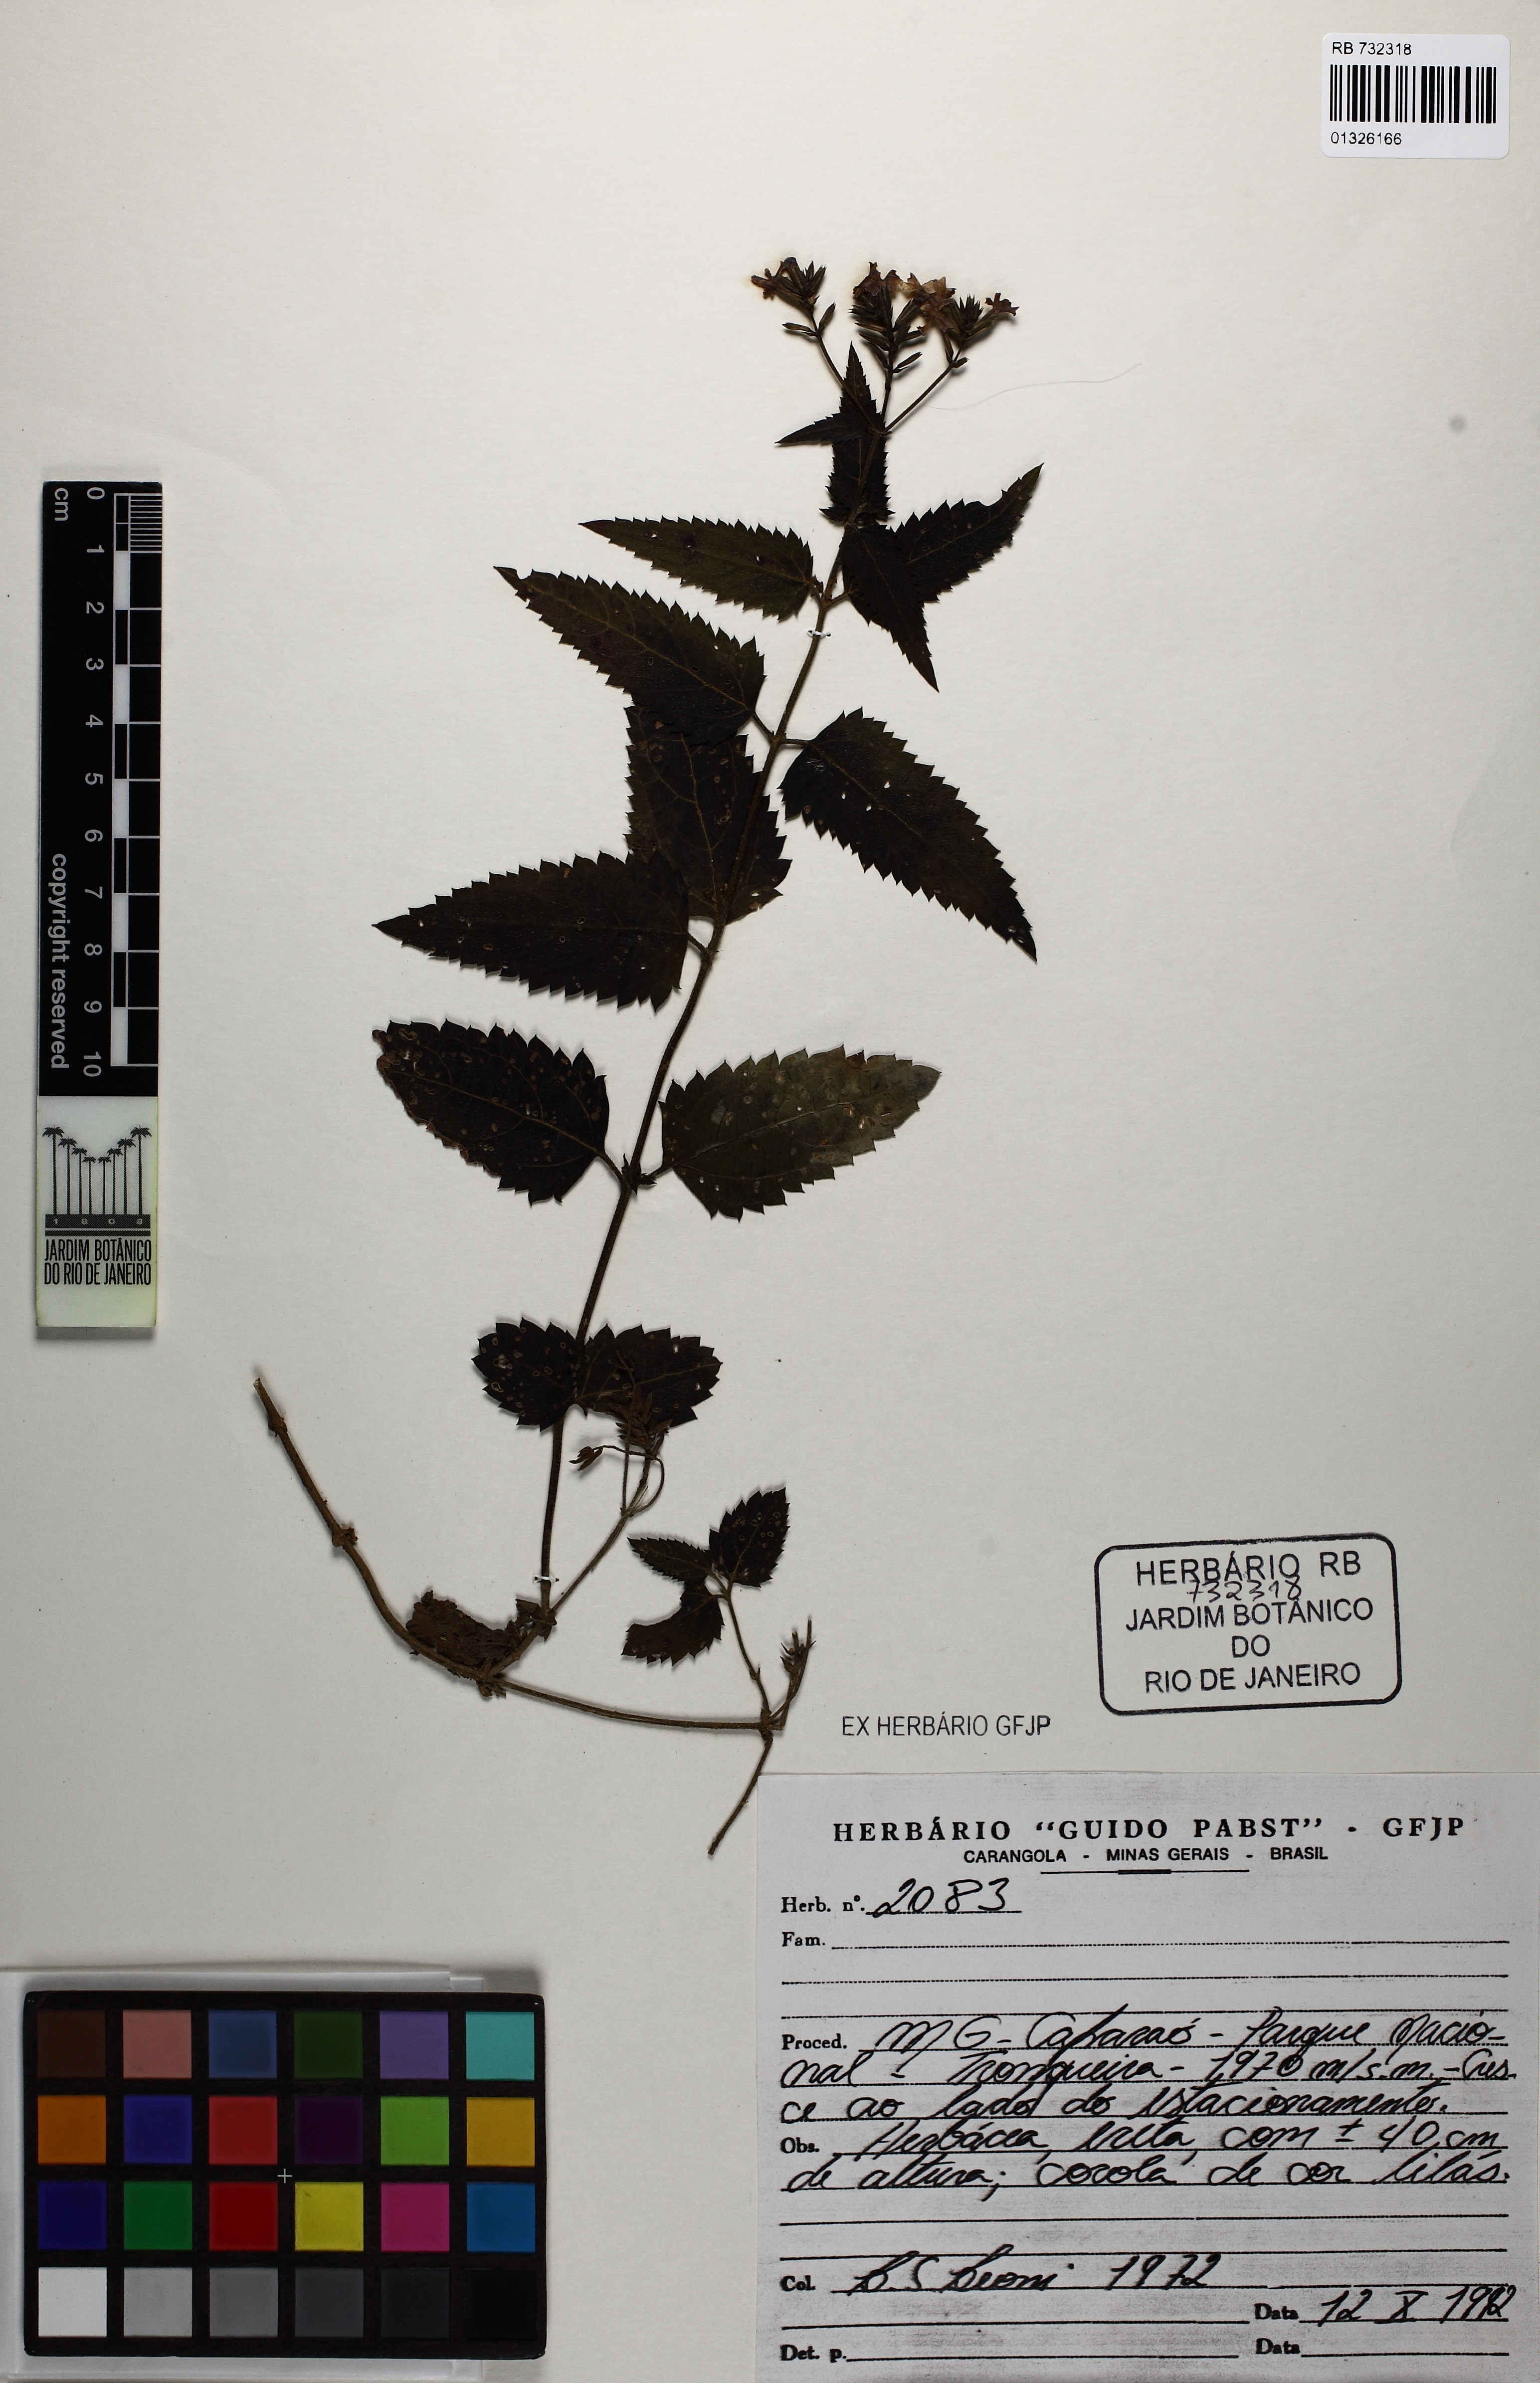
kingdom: Plantae
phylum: Tracheophyta
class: Magnoliopsida
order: Lamiales
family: Verbenaceae
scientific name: Verbenaceae
